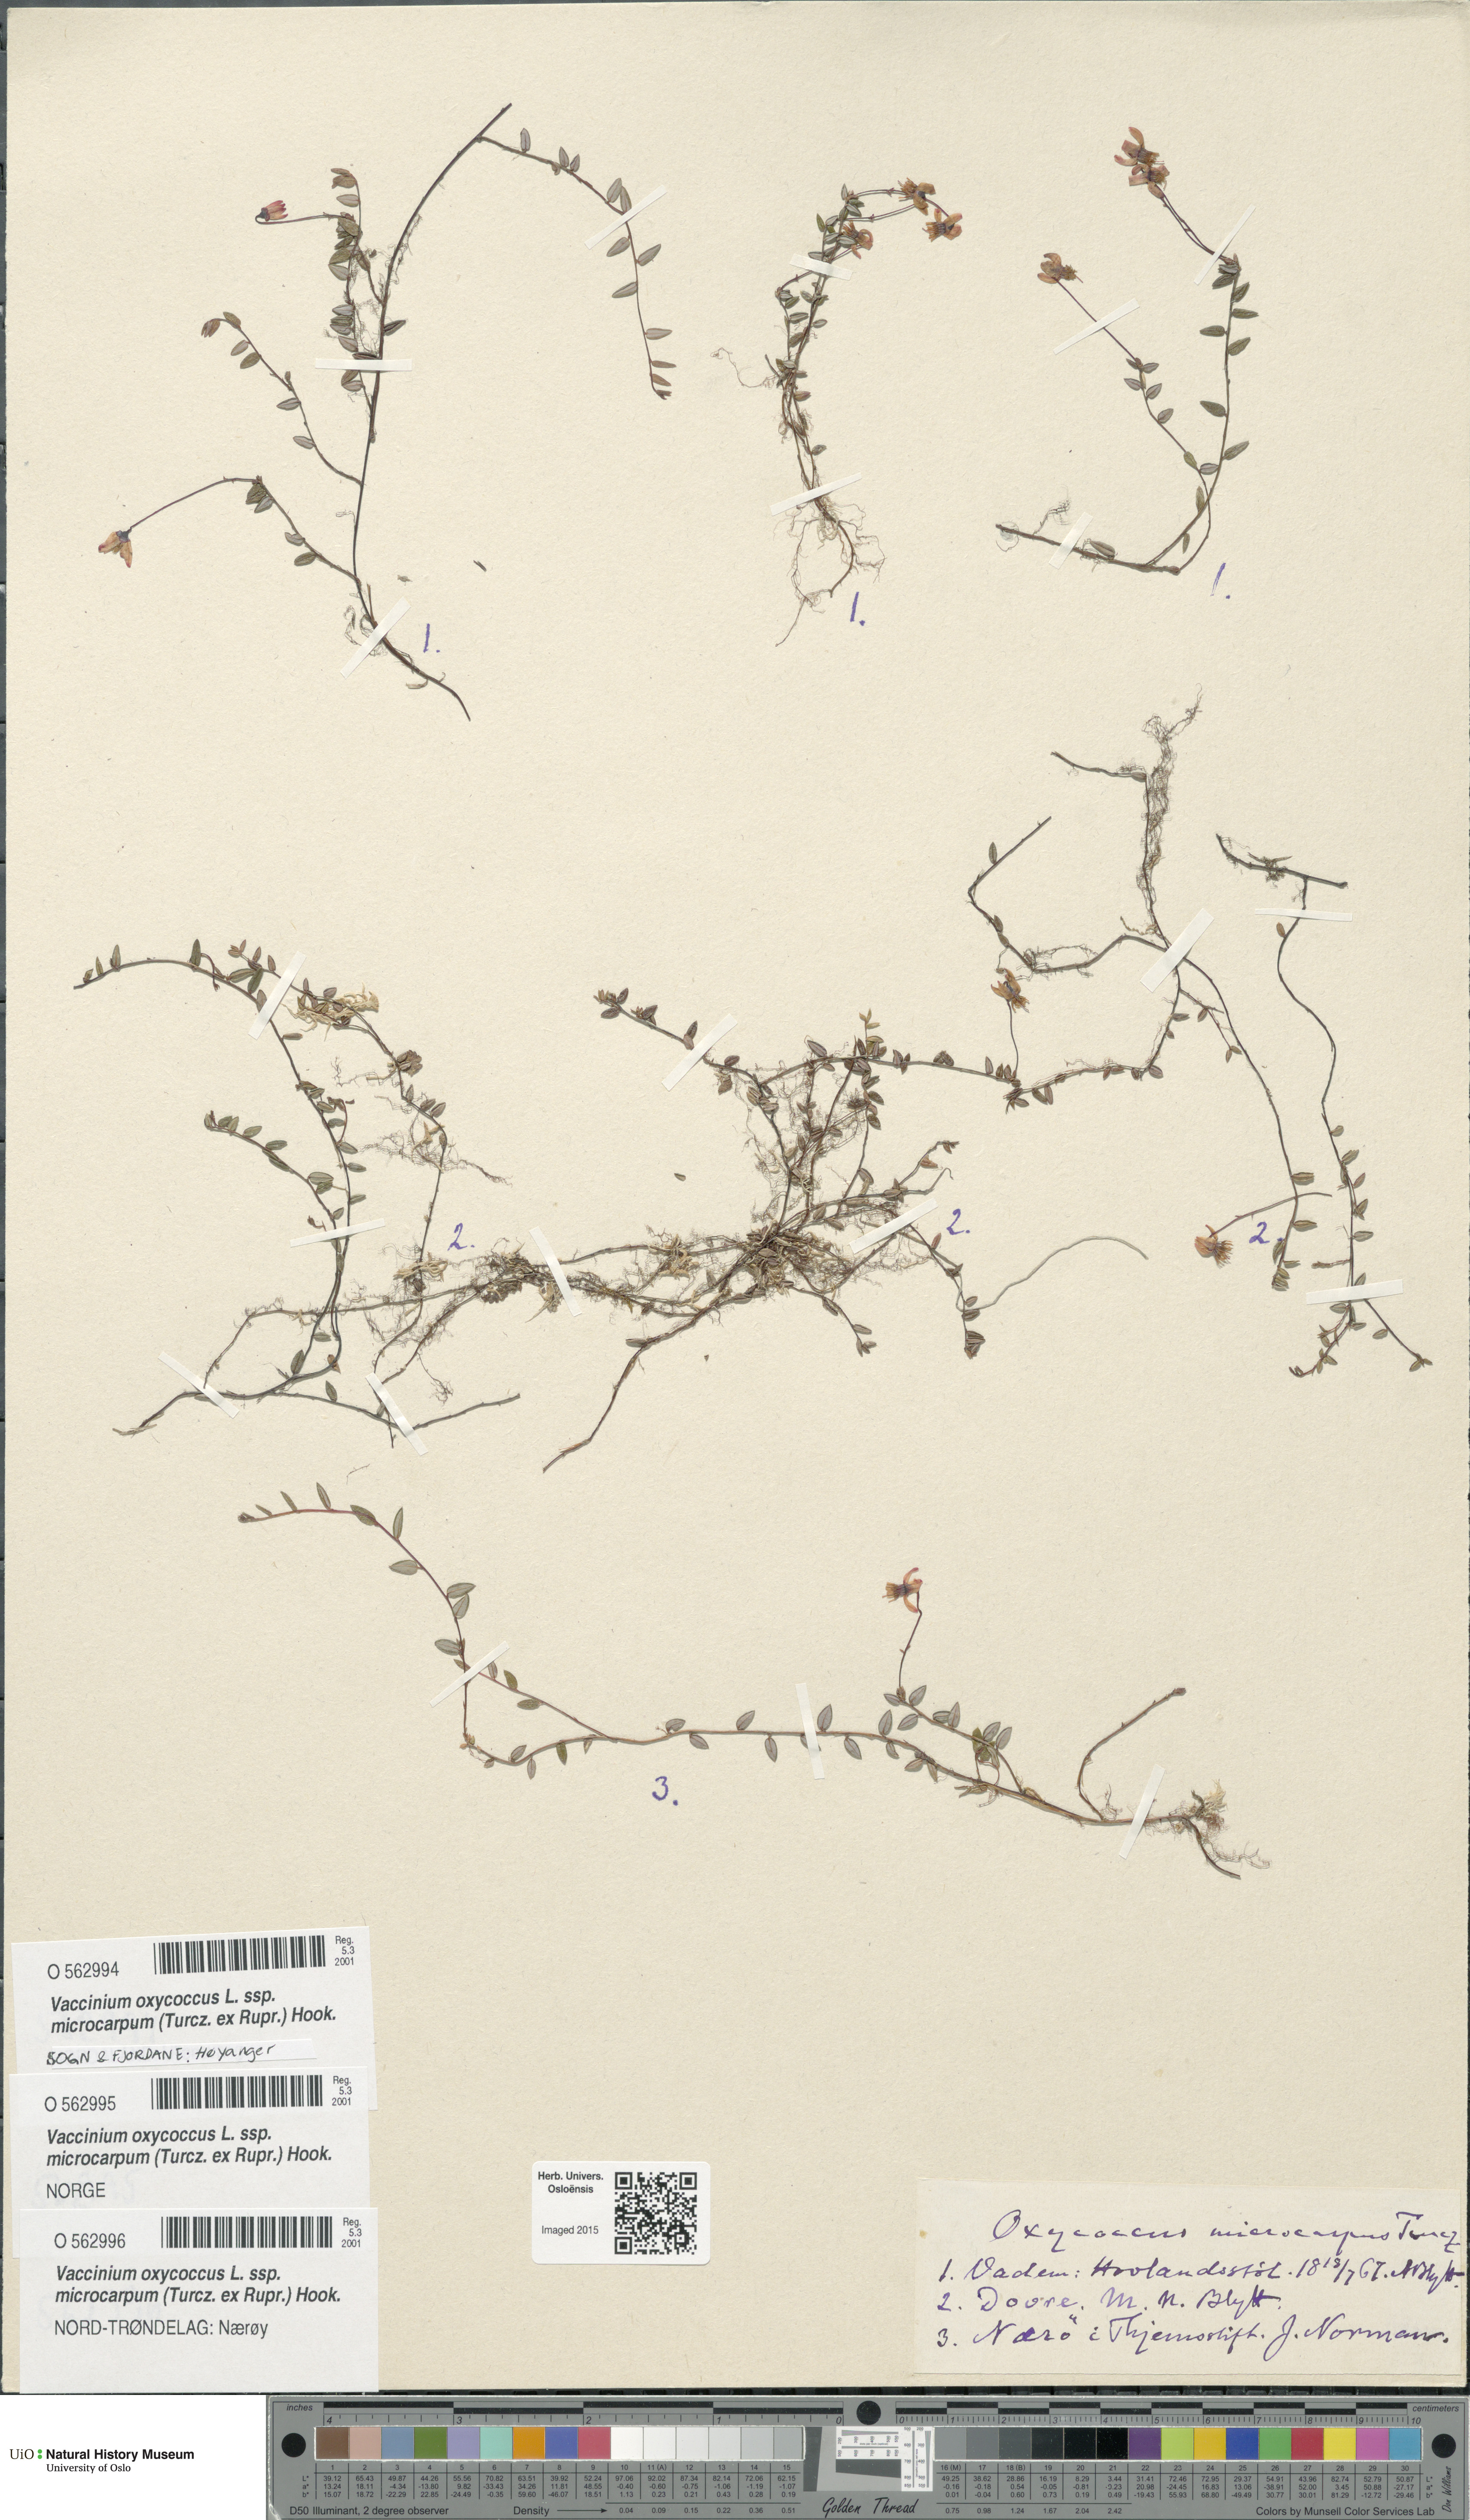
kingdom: Plantae
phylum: Tracheophyta
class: Magnoliopsida
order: Ericales
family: Ericaceae
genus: Vaccinium
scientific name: Vaccinium microcarpum
